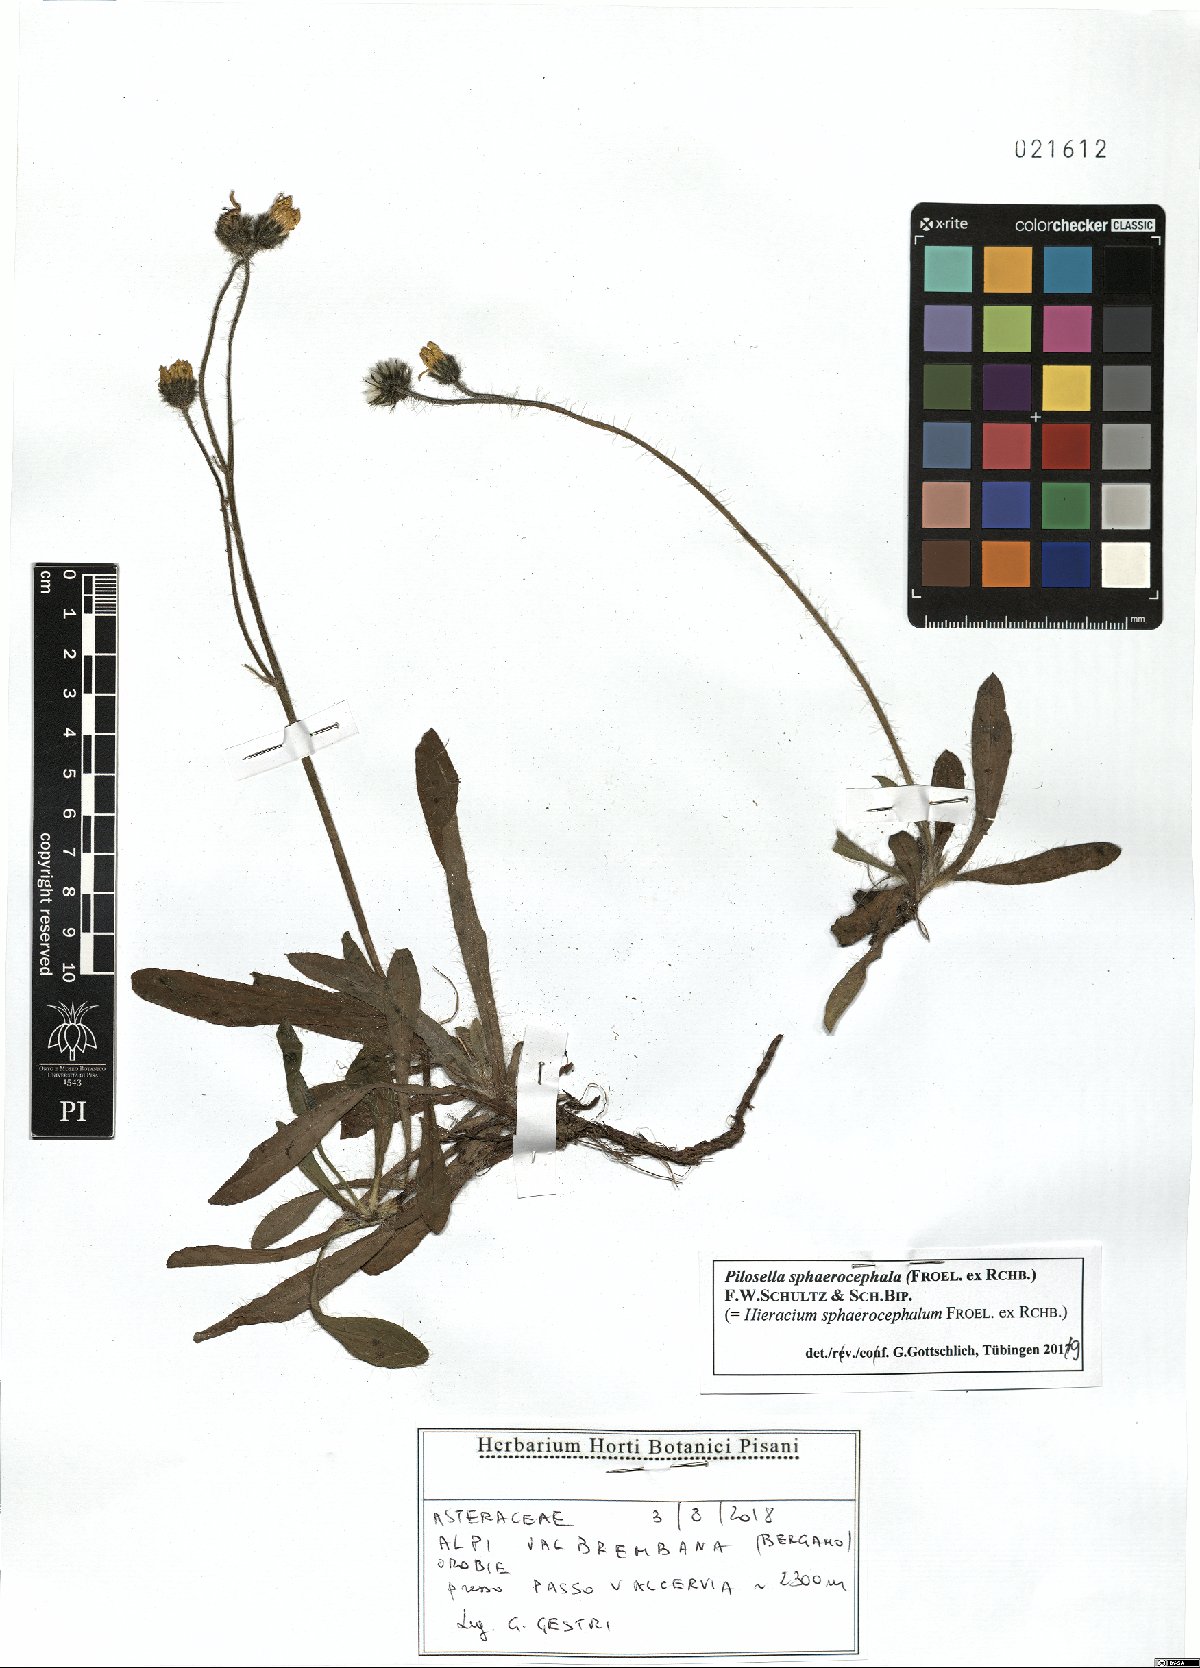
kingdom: Plantae
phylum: Tracheophyta
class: Magnoliopsida
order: Asterales
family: Asteraceae
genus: Pilosella
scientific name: Pilosella sphaerocephala
